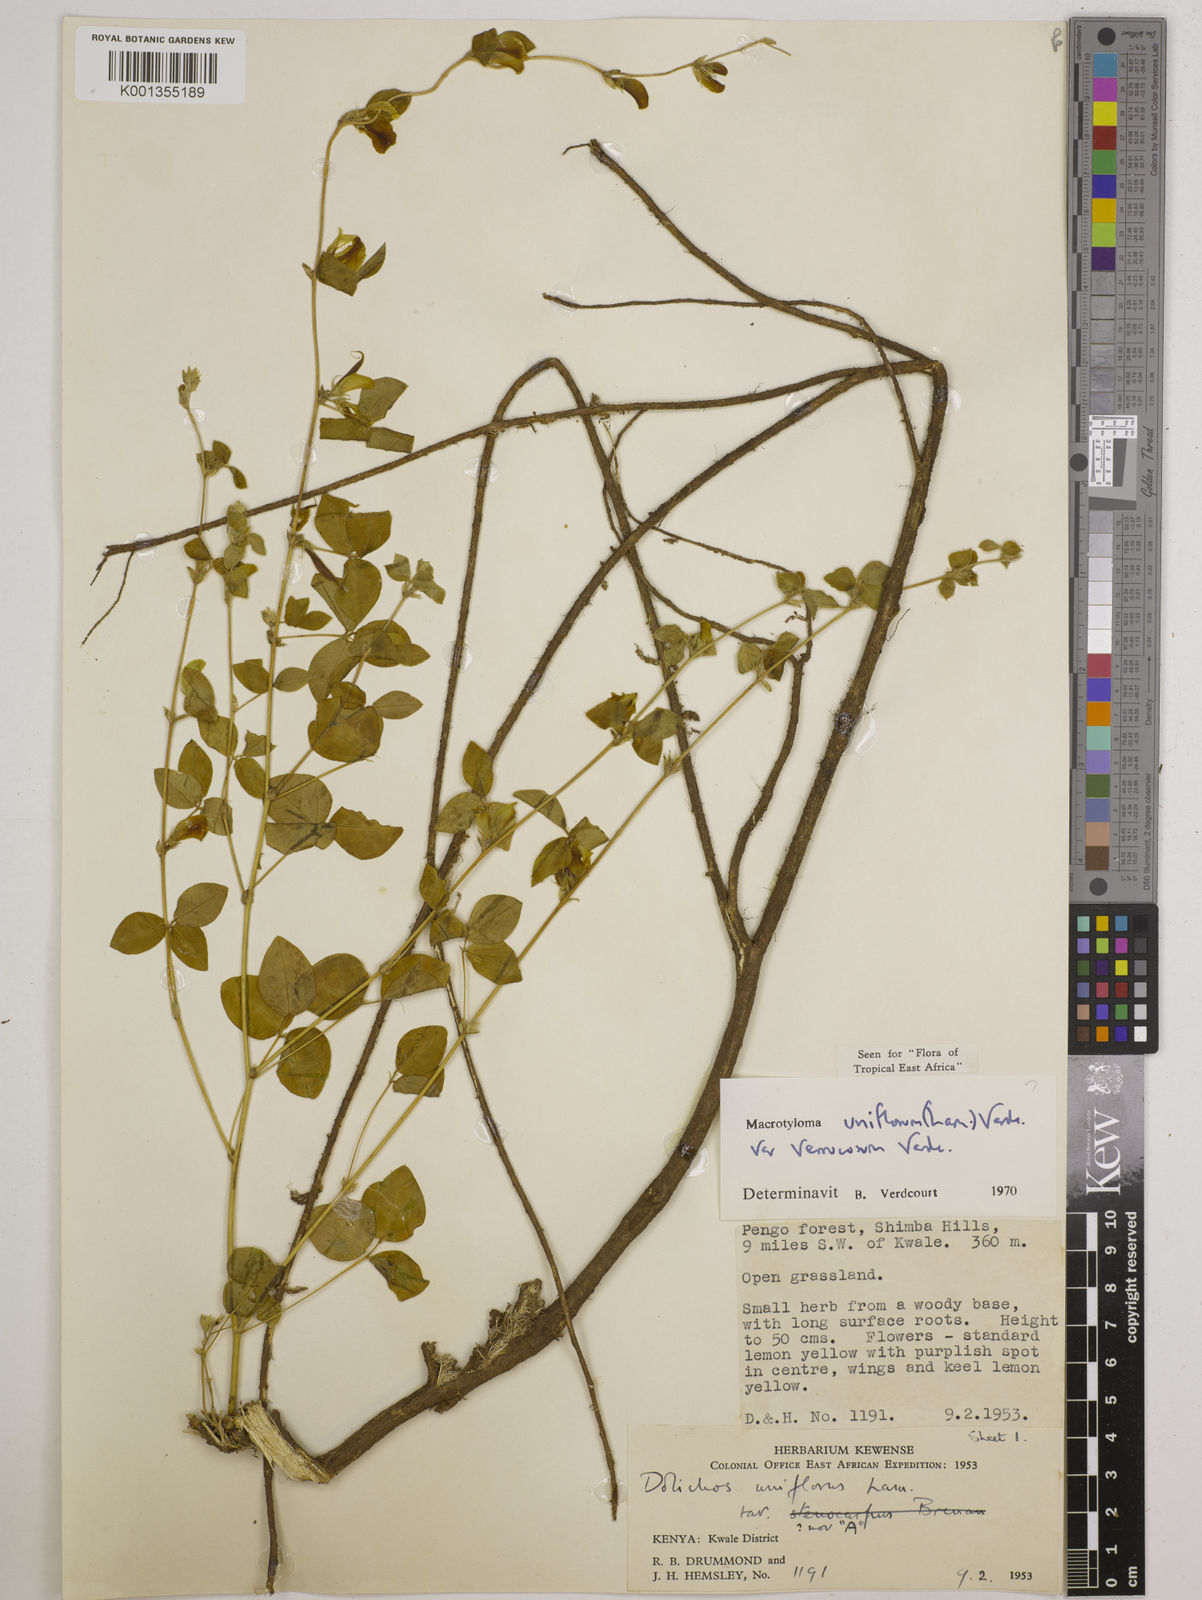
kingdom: Plantae
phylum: Tracheophyta
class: Magnoliopsida
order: Fabales
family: Fabaceae
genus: Macrotyloma
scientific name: Macrotyloma
